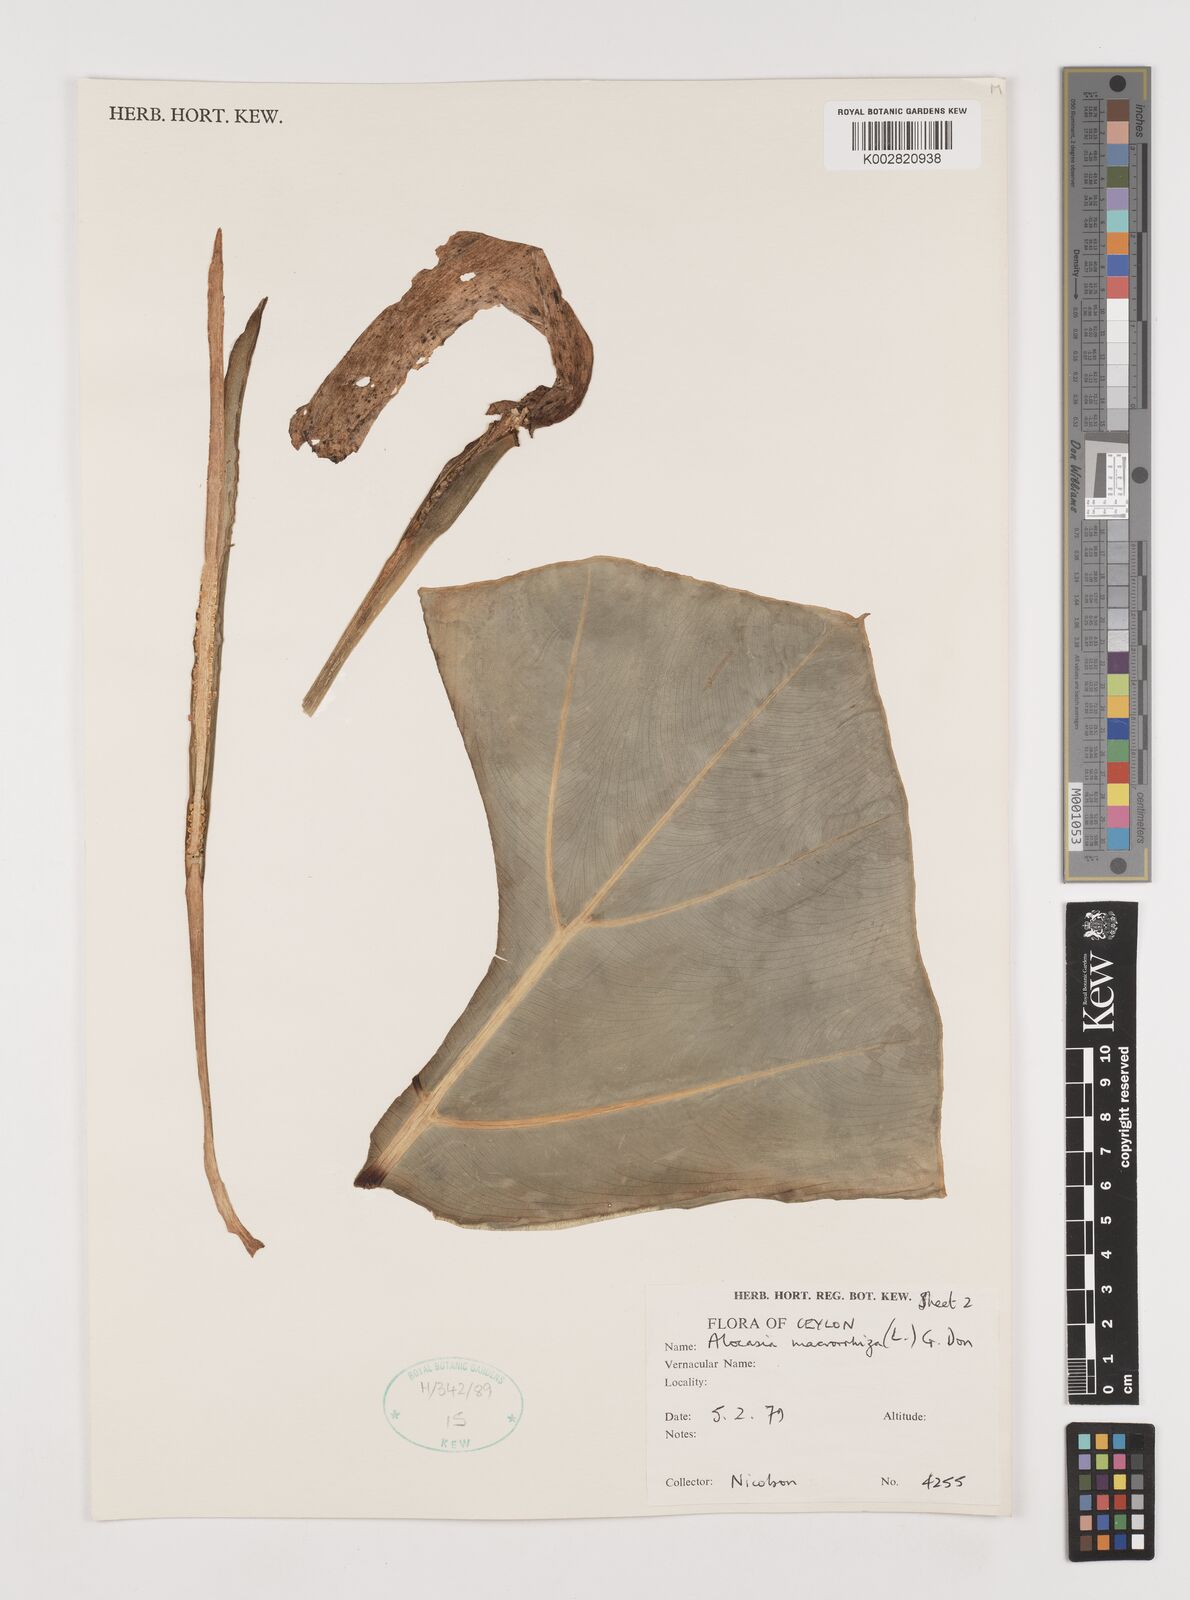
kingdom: Plantae
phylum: Tracheophyta
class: Liliopsida
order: Alismatales
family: Araceae
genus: Alocasia
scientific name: Alocasia macrorrhizos
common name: Giant taro
